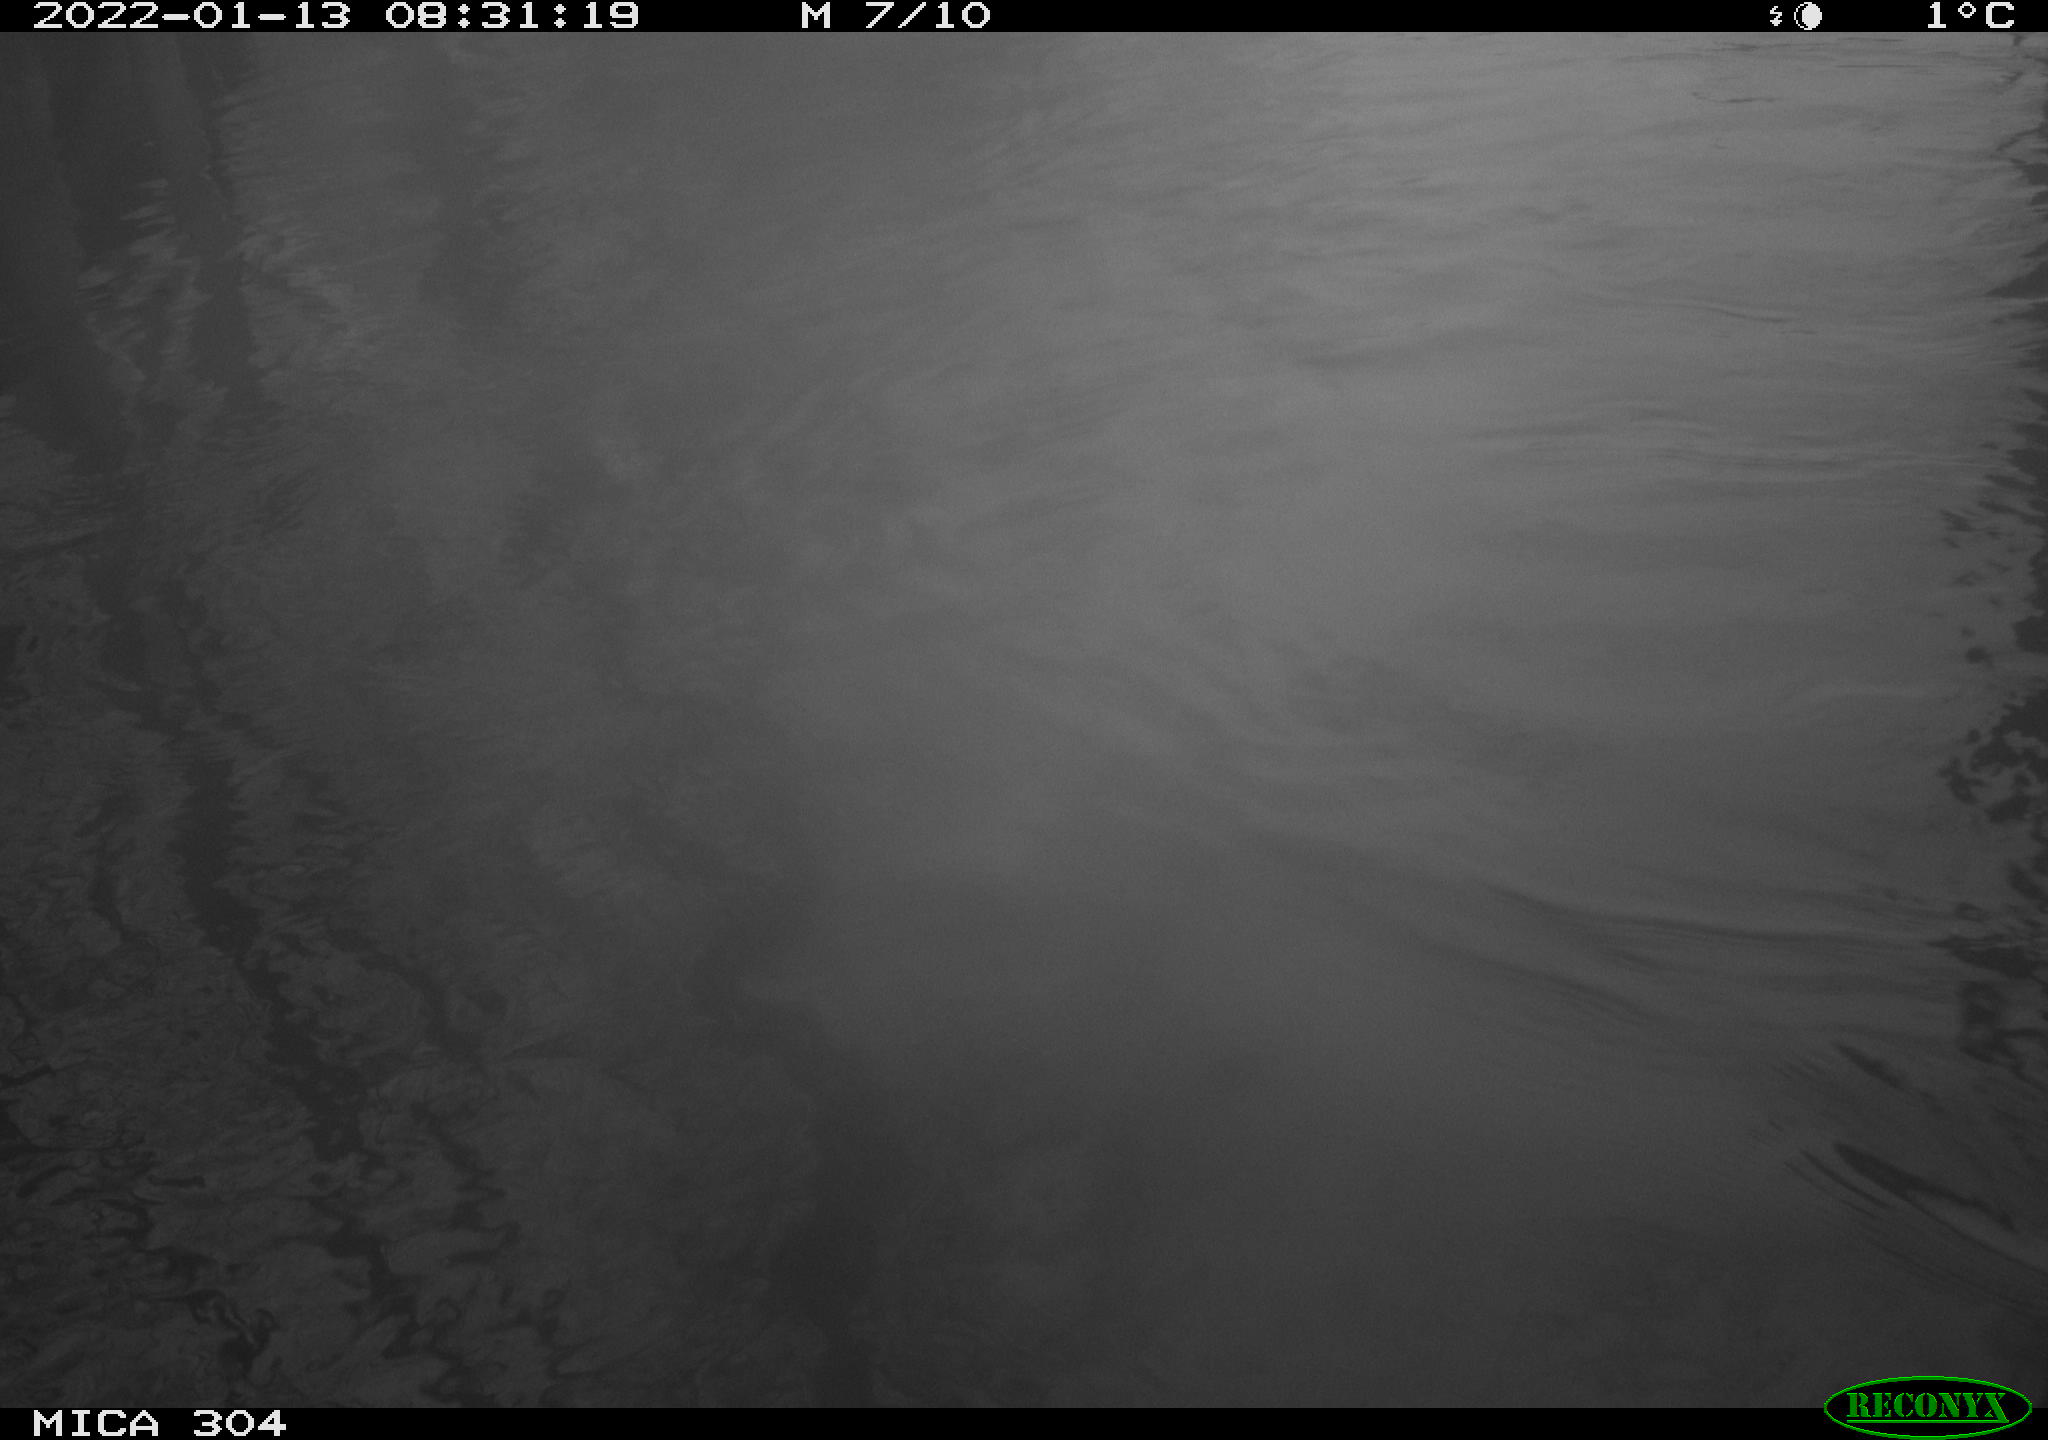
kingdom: Animalia
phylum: Chordata
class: Aves
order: Gruiformes
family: Rallidae
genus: Fulica
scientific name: Fulica atra
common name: Eurasian coot
